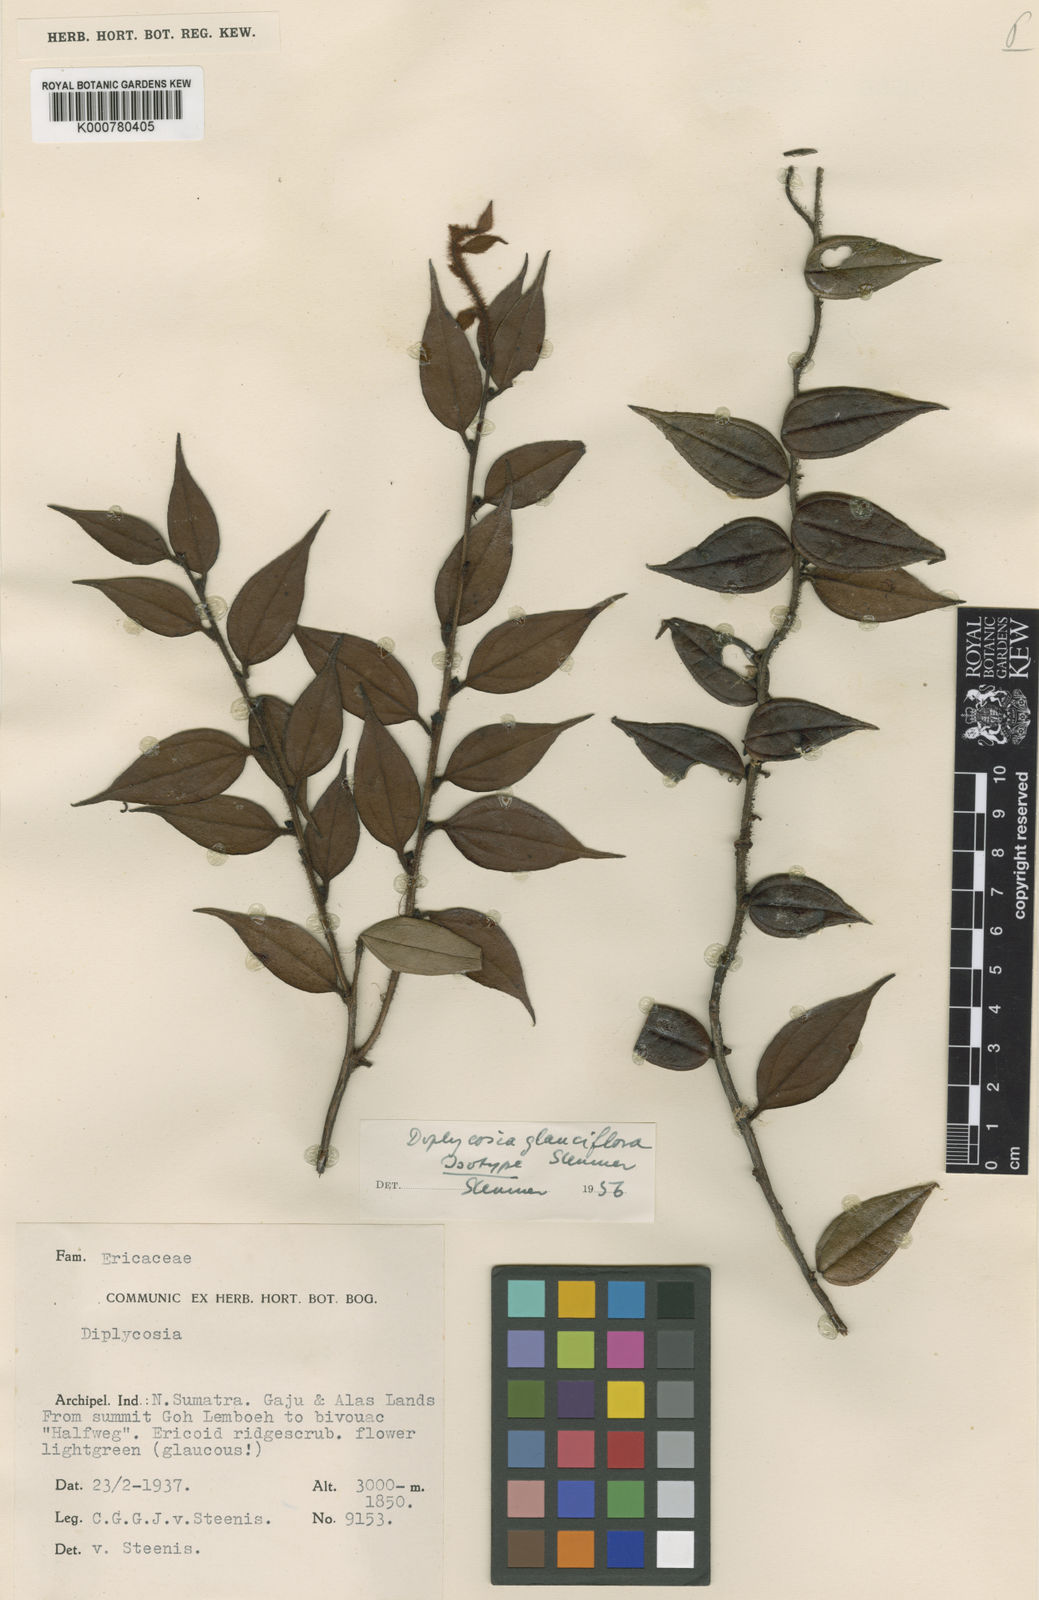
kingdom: Plantae
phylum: Tracheophyta
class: Magnoliopsida
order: Ericales
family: Ericaceae
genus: Gaultheria
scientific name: Gaultheria glauciflora
